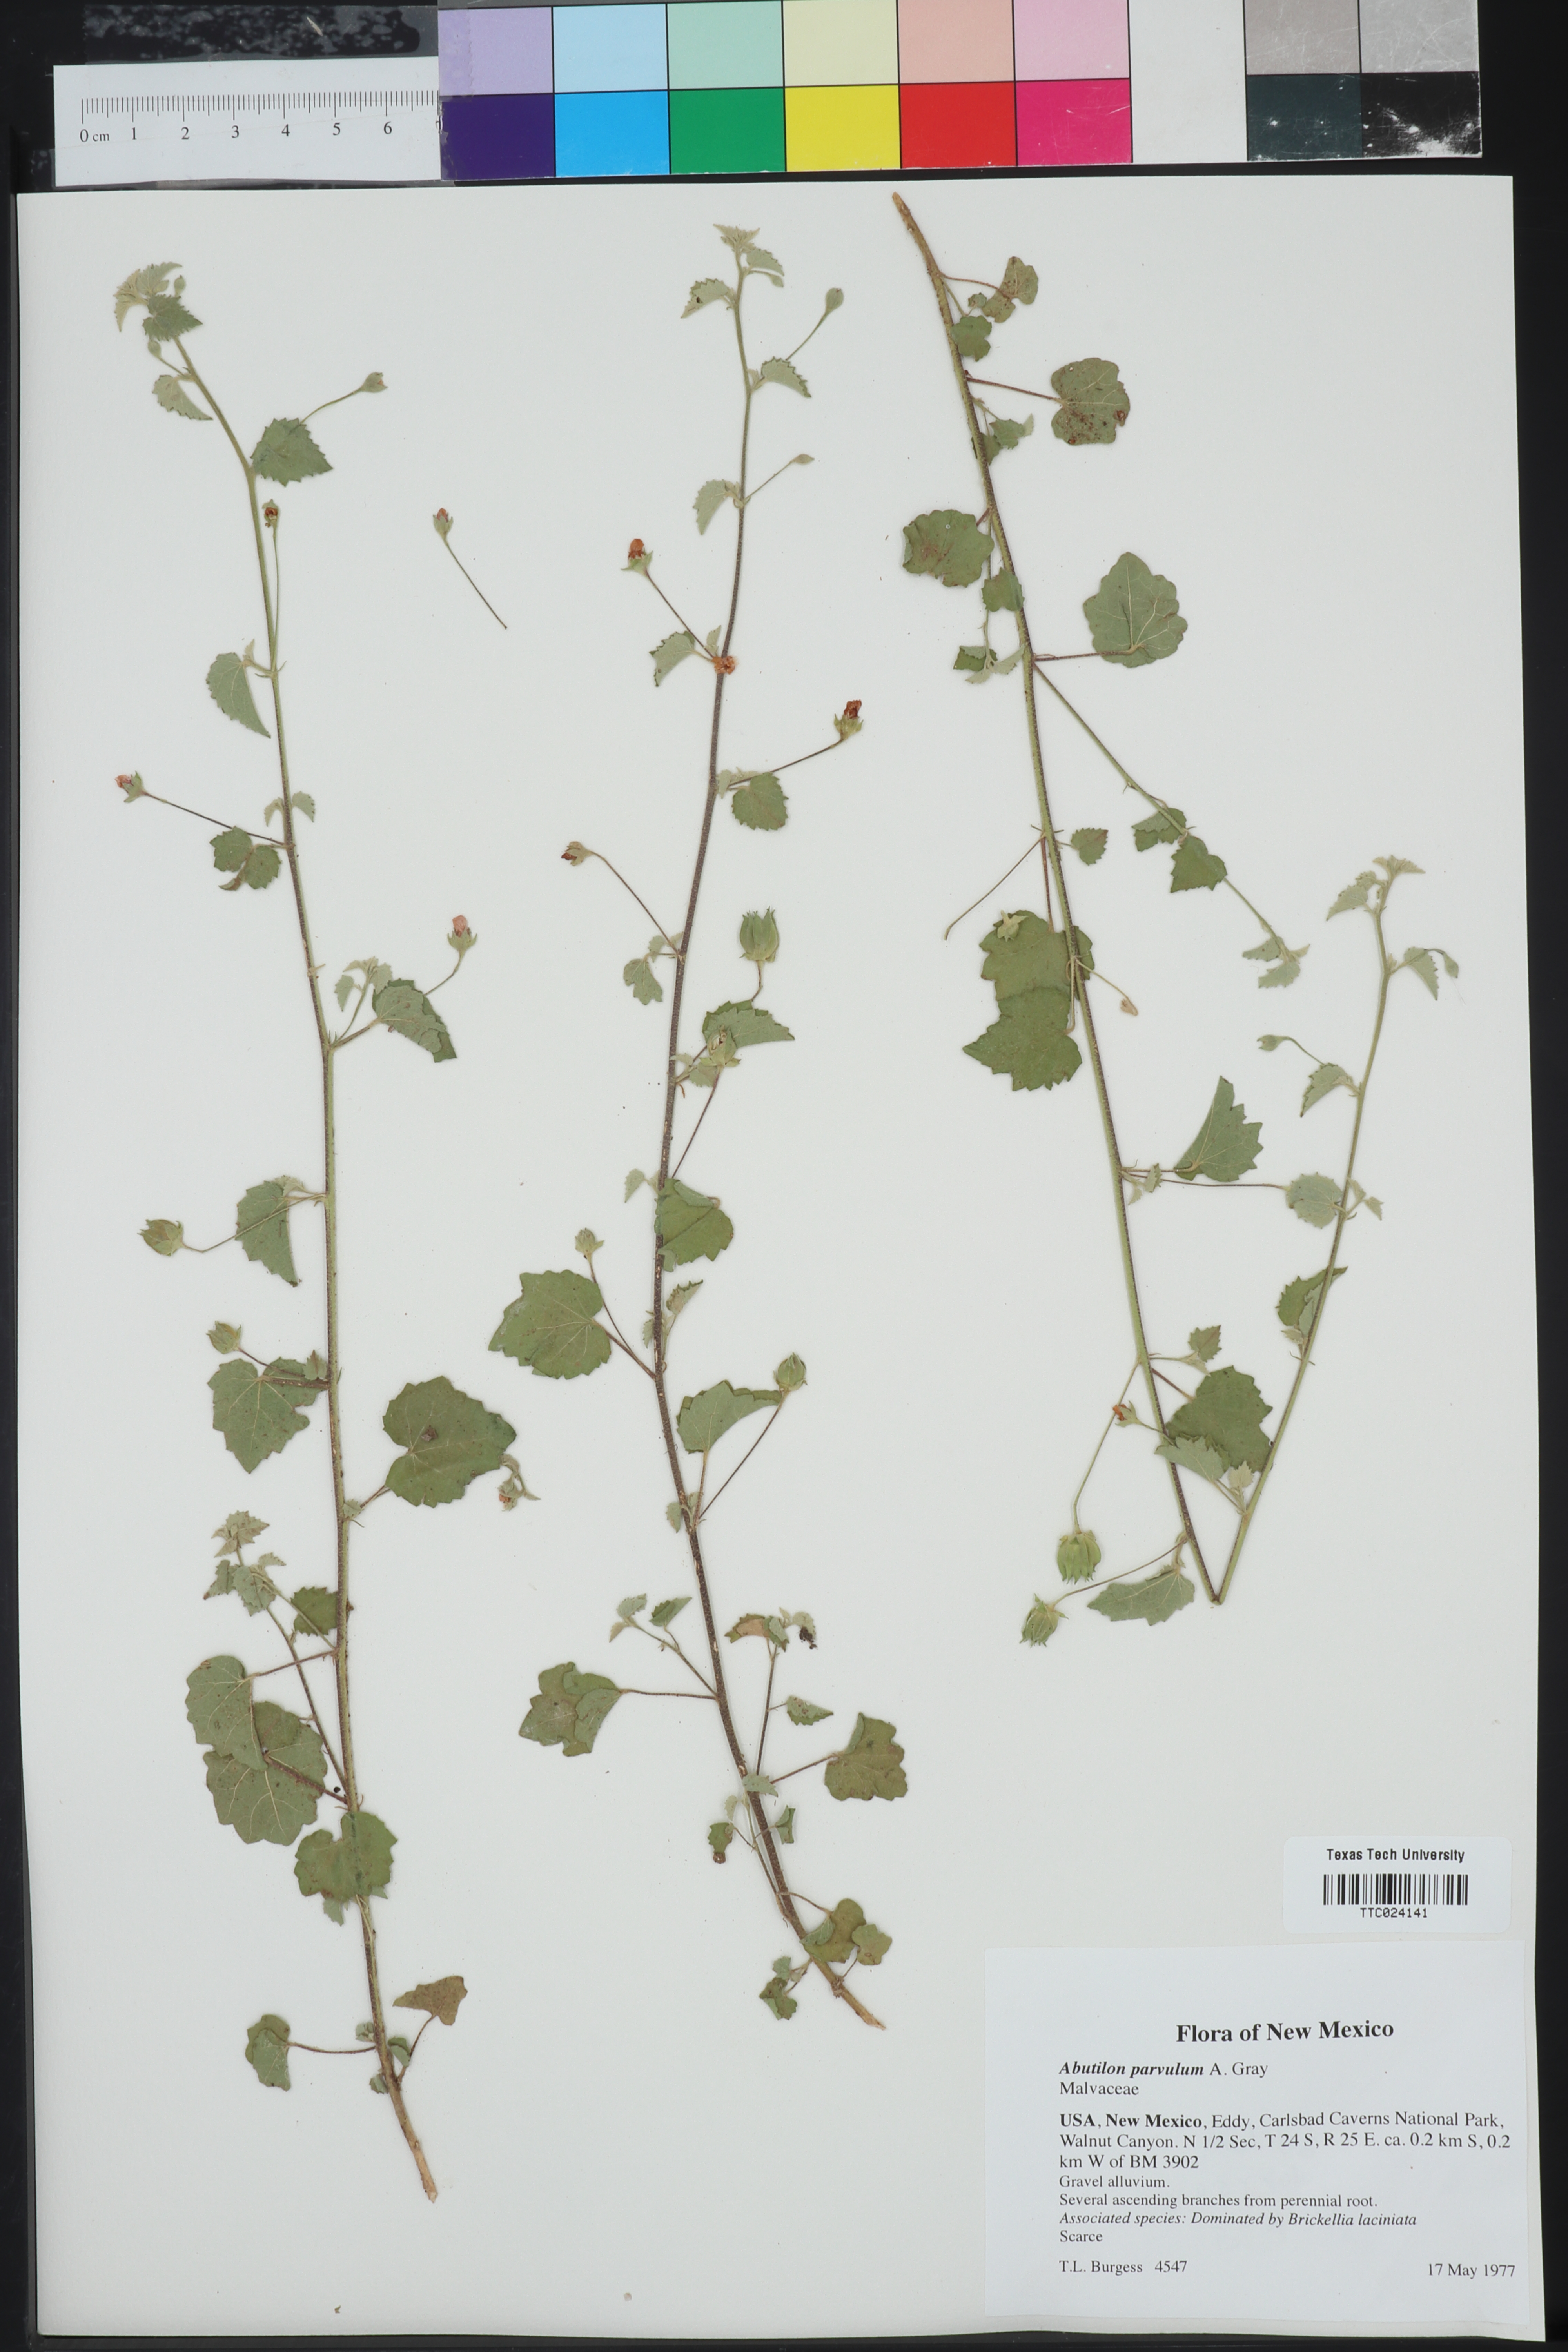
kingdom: Plantae
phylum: Tracheophyta
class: Magnoliopsida
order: Malvales
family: Malvaceae
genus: Abutilon
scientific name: Abutilon parvulum
